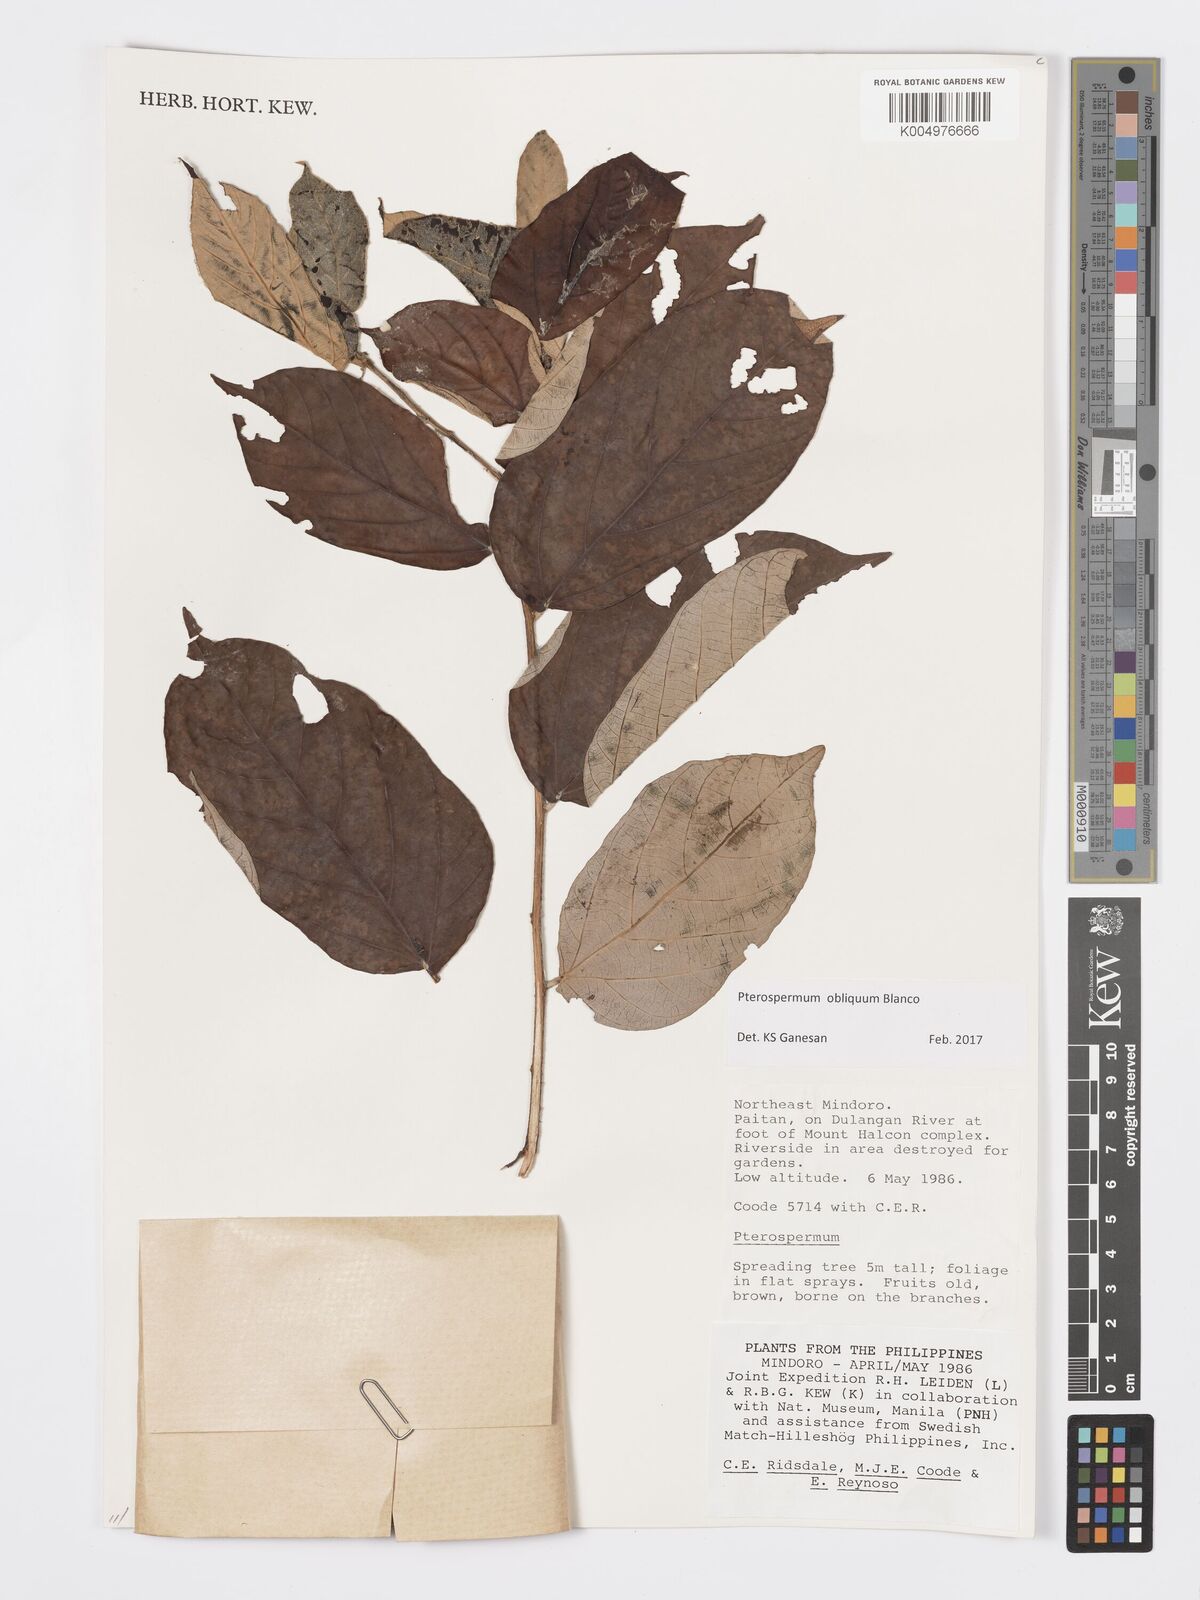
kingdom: Plantae
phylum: Tracheophyta
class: Magnoliopsida
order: Malvales
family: Malvaceae
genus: Pterospermum
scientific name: Pterospermum obliquum
